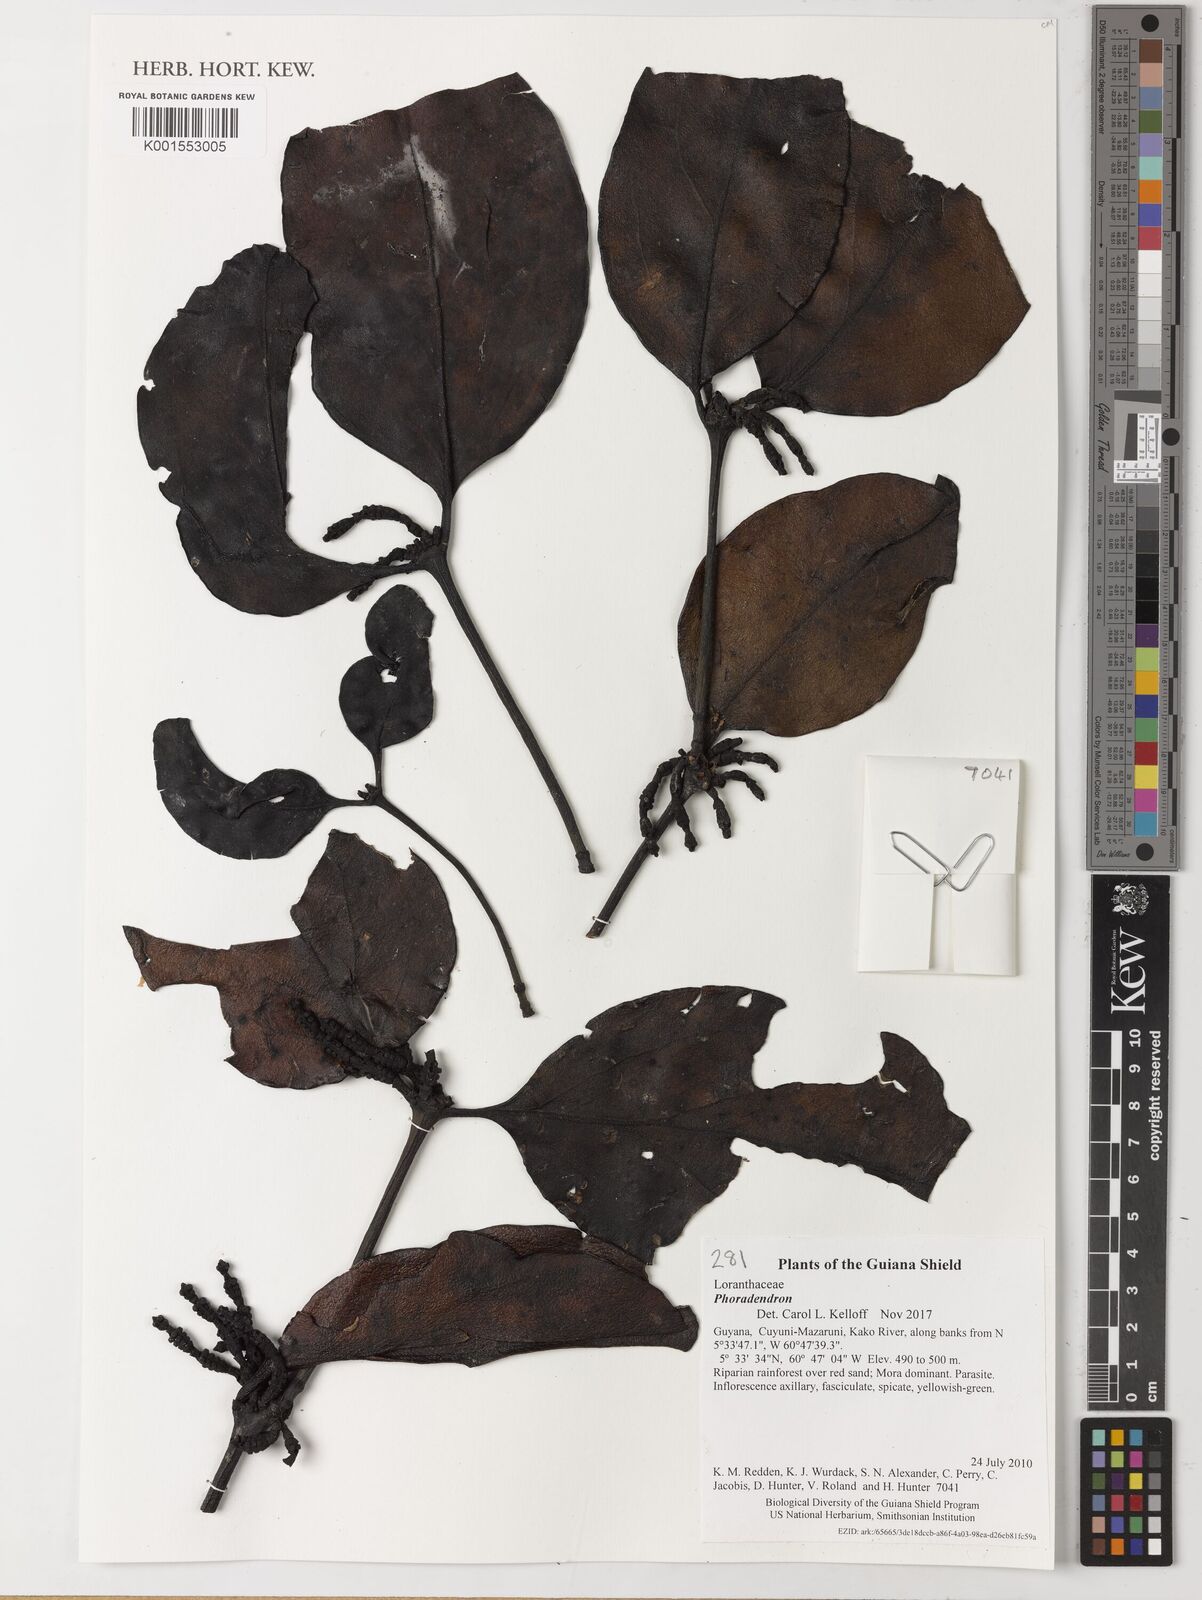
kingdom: Plantae
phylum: Tracheophyta
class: Magnoliopsida
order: Santalales
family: Loranthaceae
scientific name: Loranthaceae
